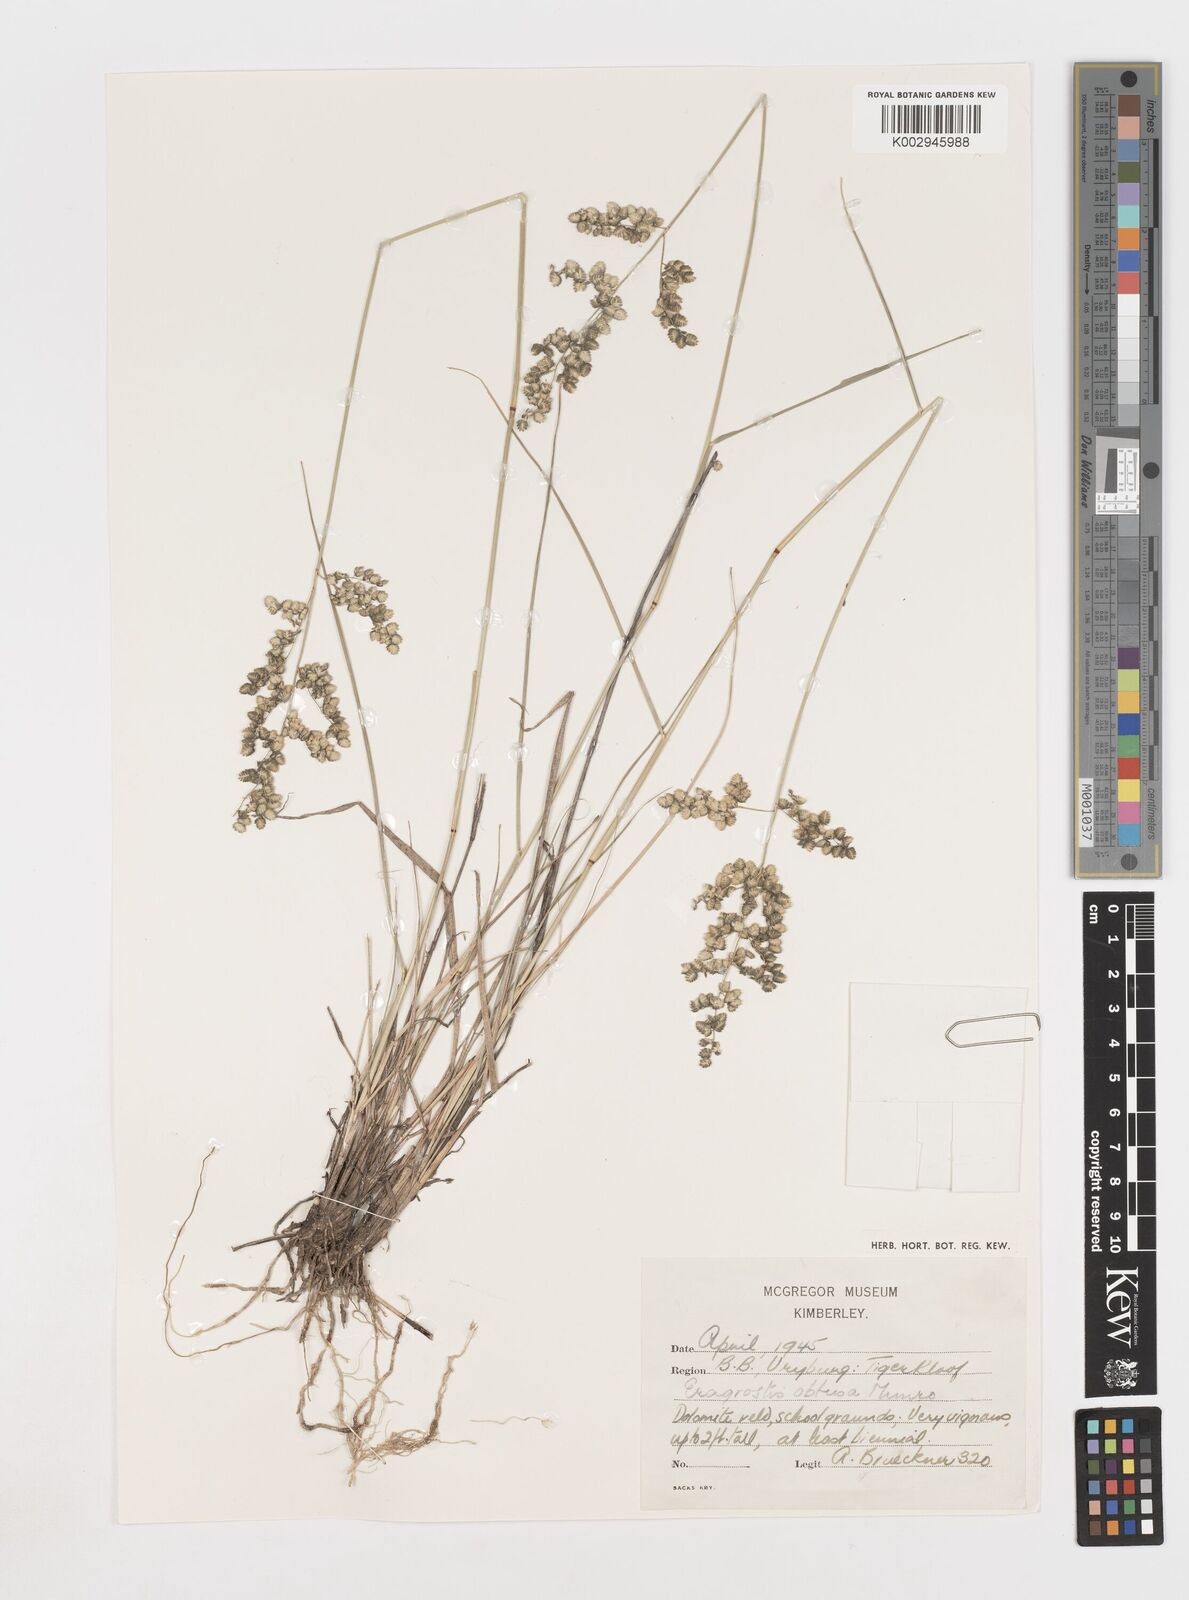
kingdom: Plantae
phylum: Tracheophyta
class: Liliopsida
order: Poales
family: Poaceae
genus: Eragrostis
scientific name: Eragrostis obtusa
